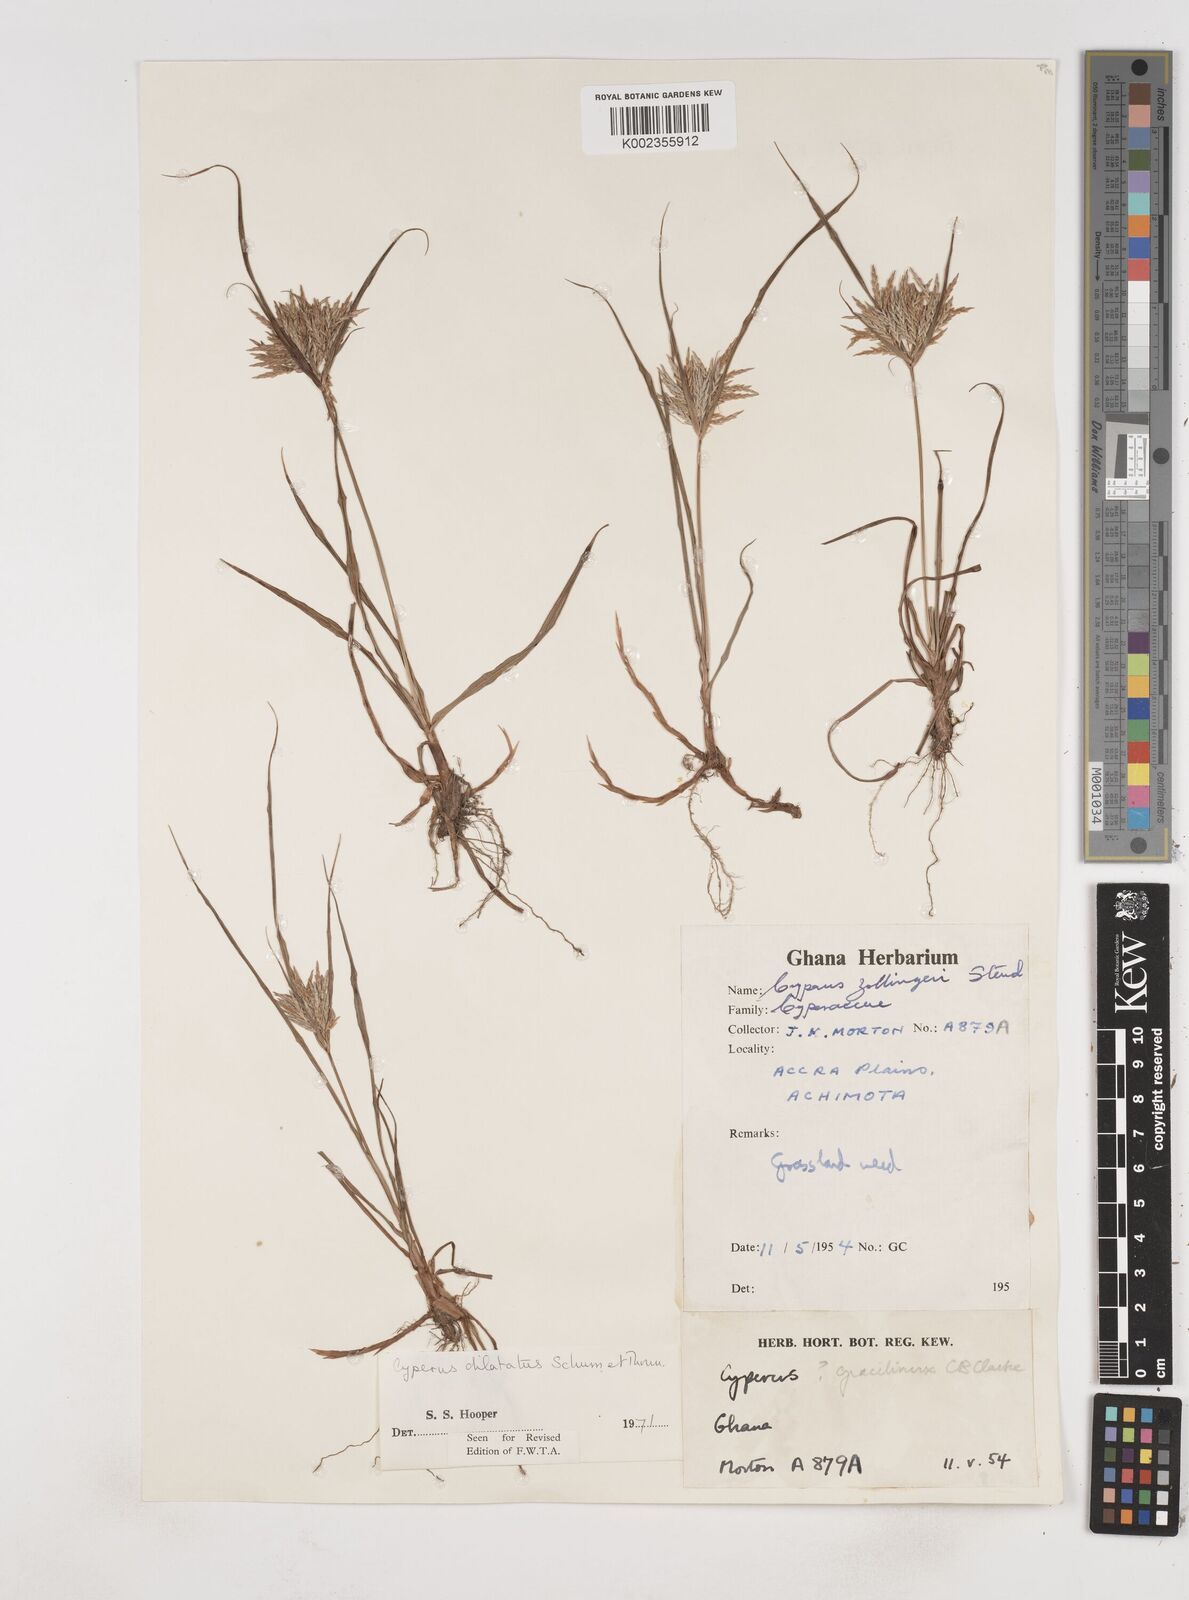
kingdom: Plantae
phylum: Tracheophyta
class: Liliopsida
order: Poales
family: Cyperaceae
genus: Cyperus
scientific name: Cyperus dilatatus
